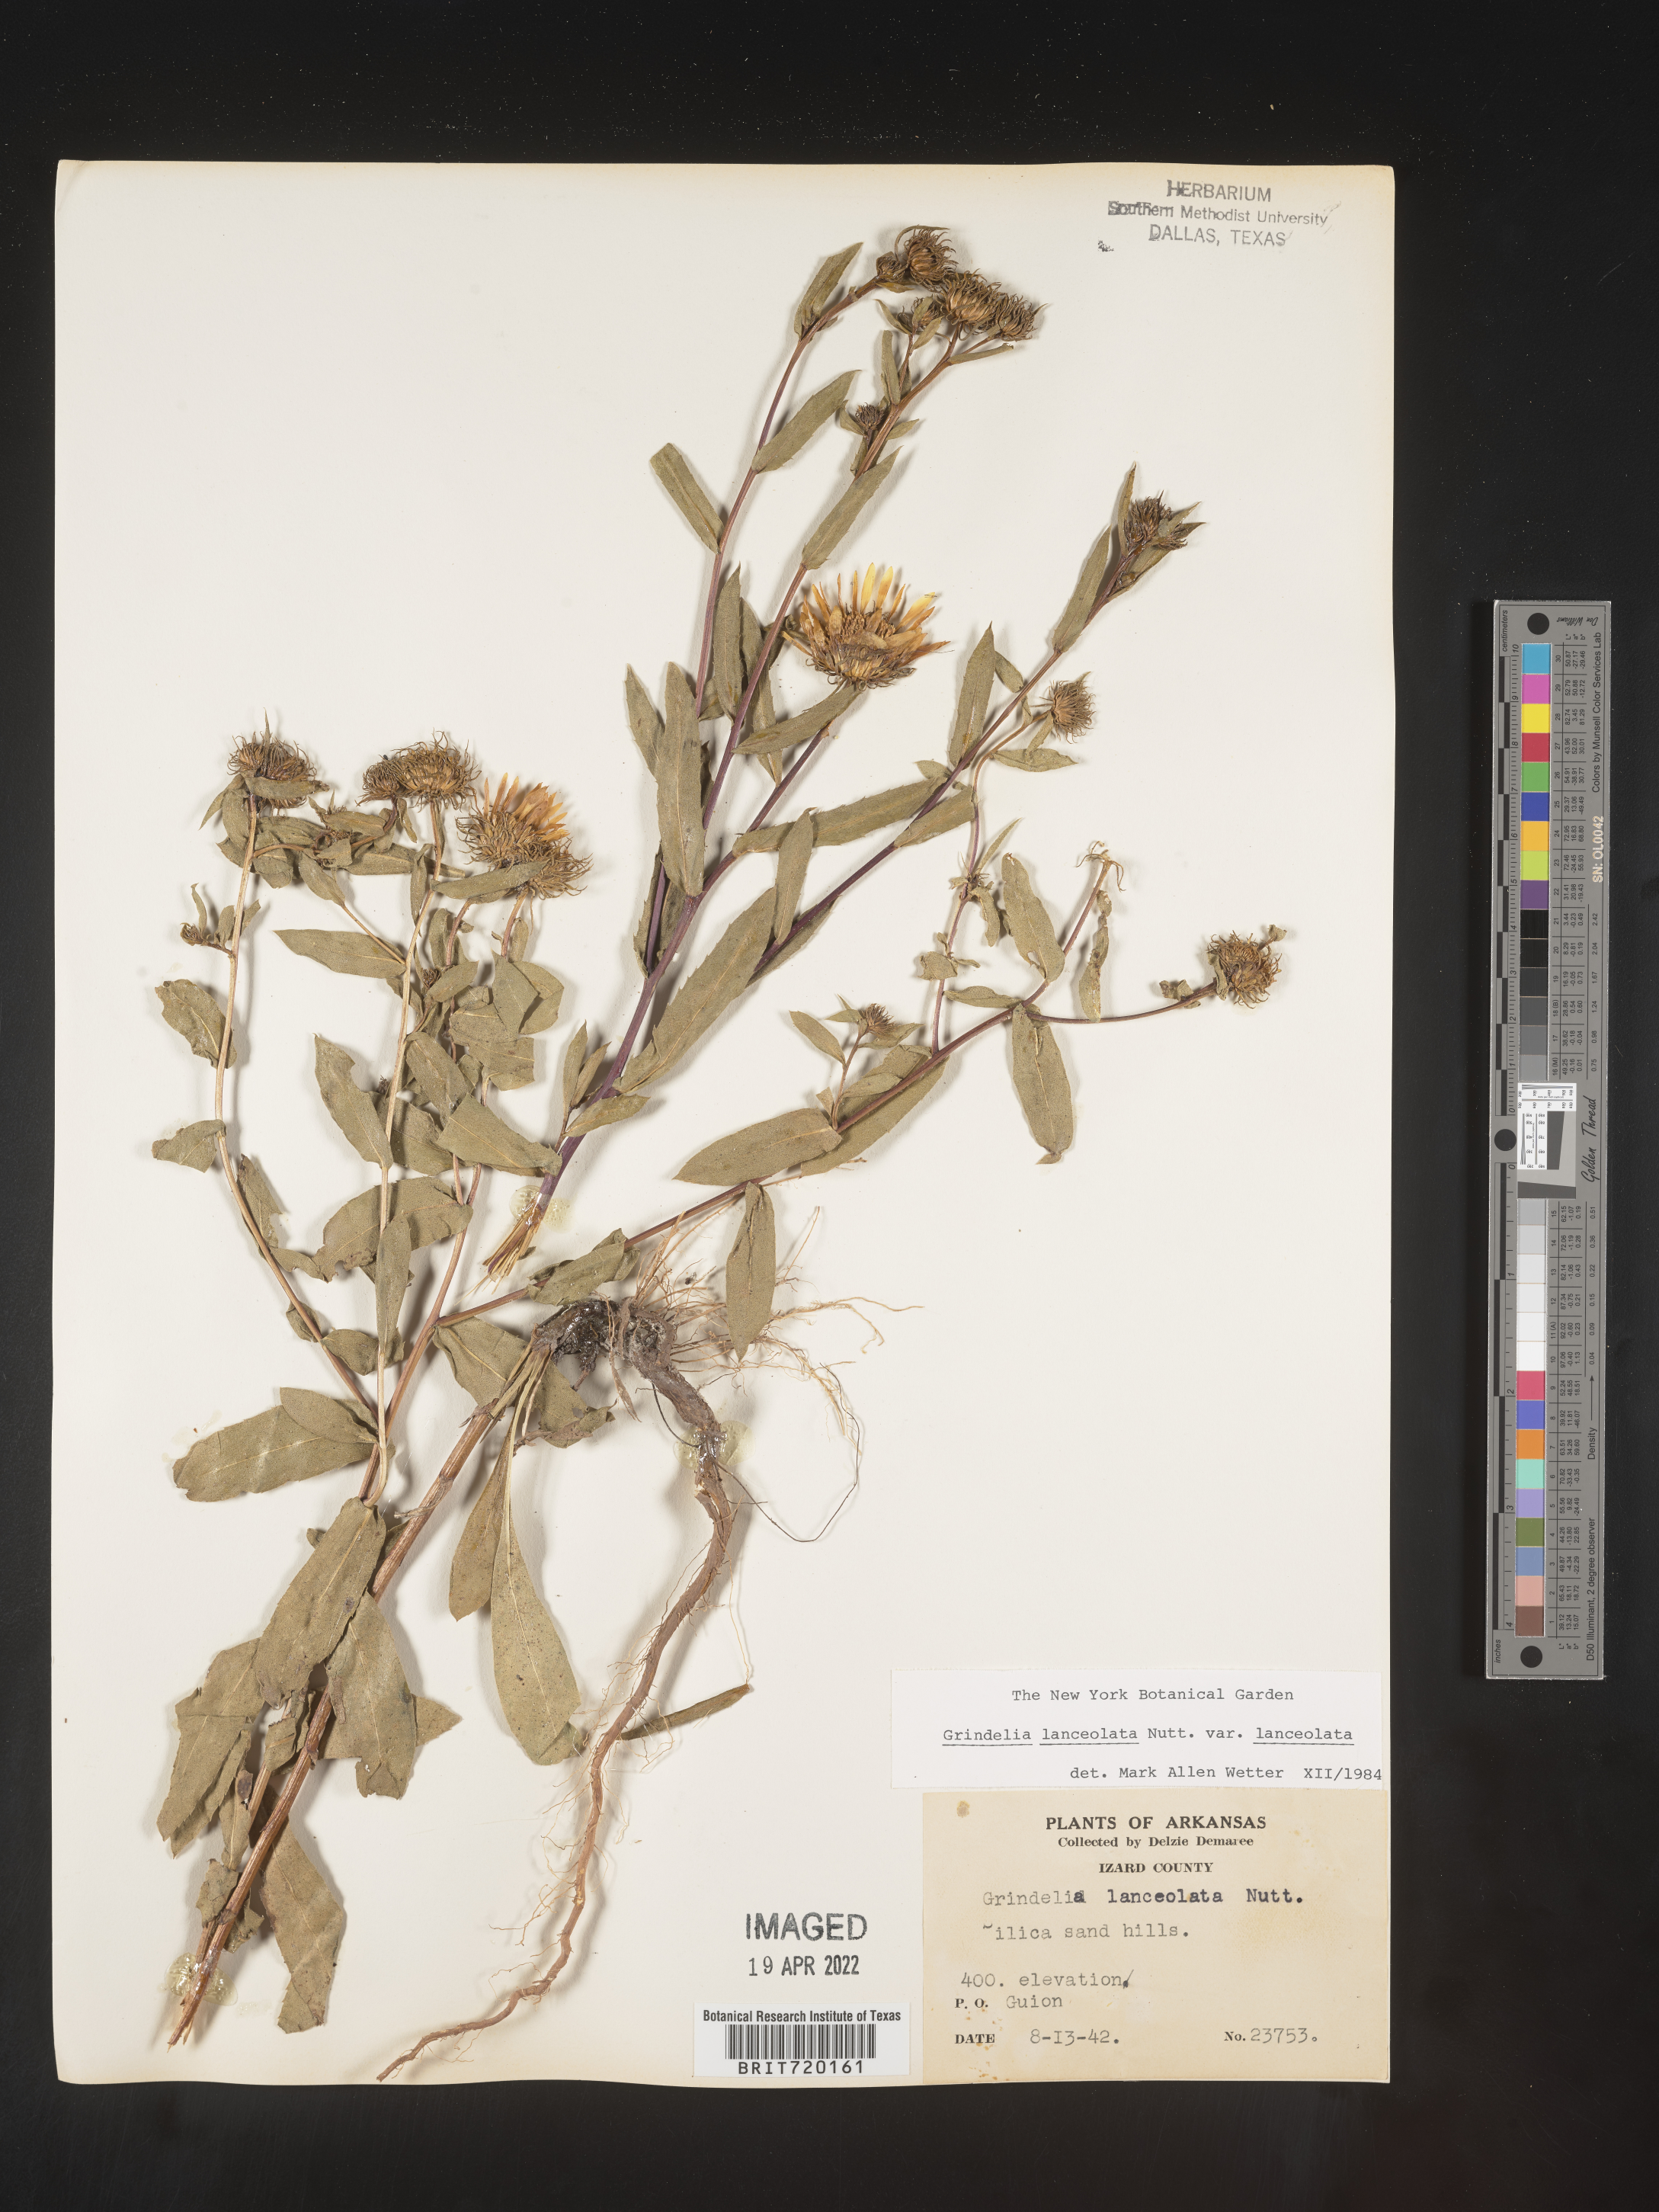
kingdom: Plantae
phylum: Tracheophyta
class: Magnoliopsida
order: Asterales
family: Asteraceae
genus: Grindelia
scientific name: Grindelia lanceolata
